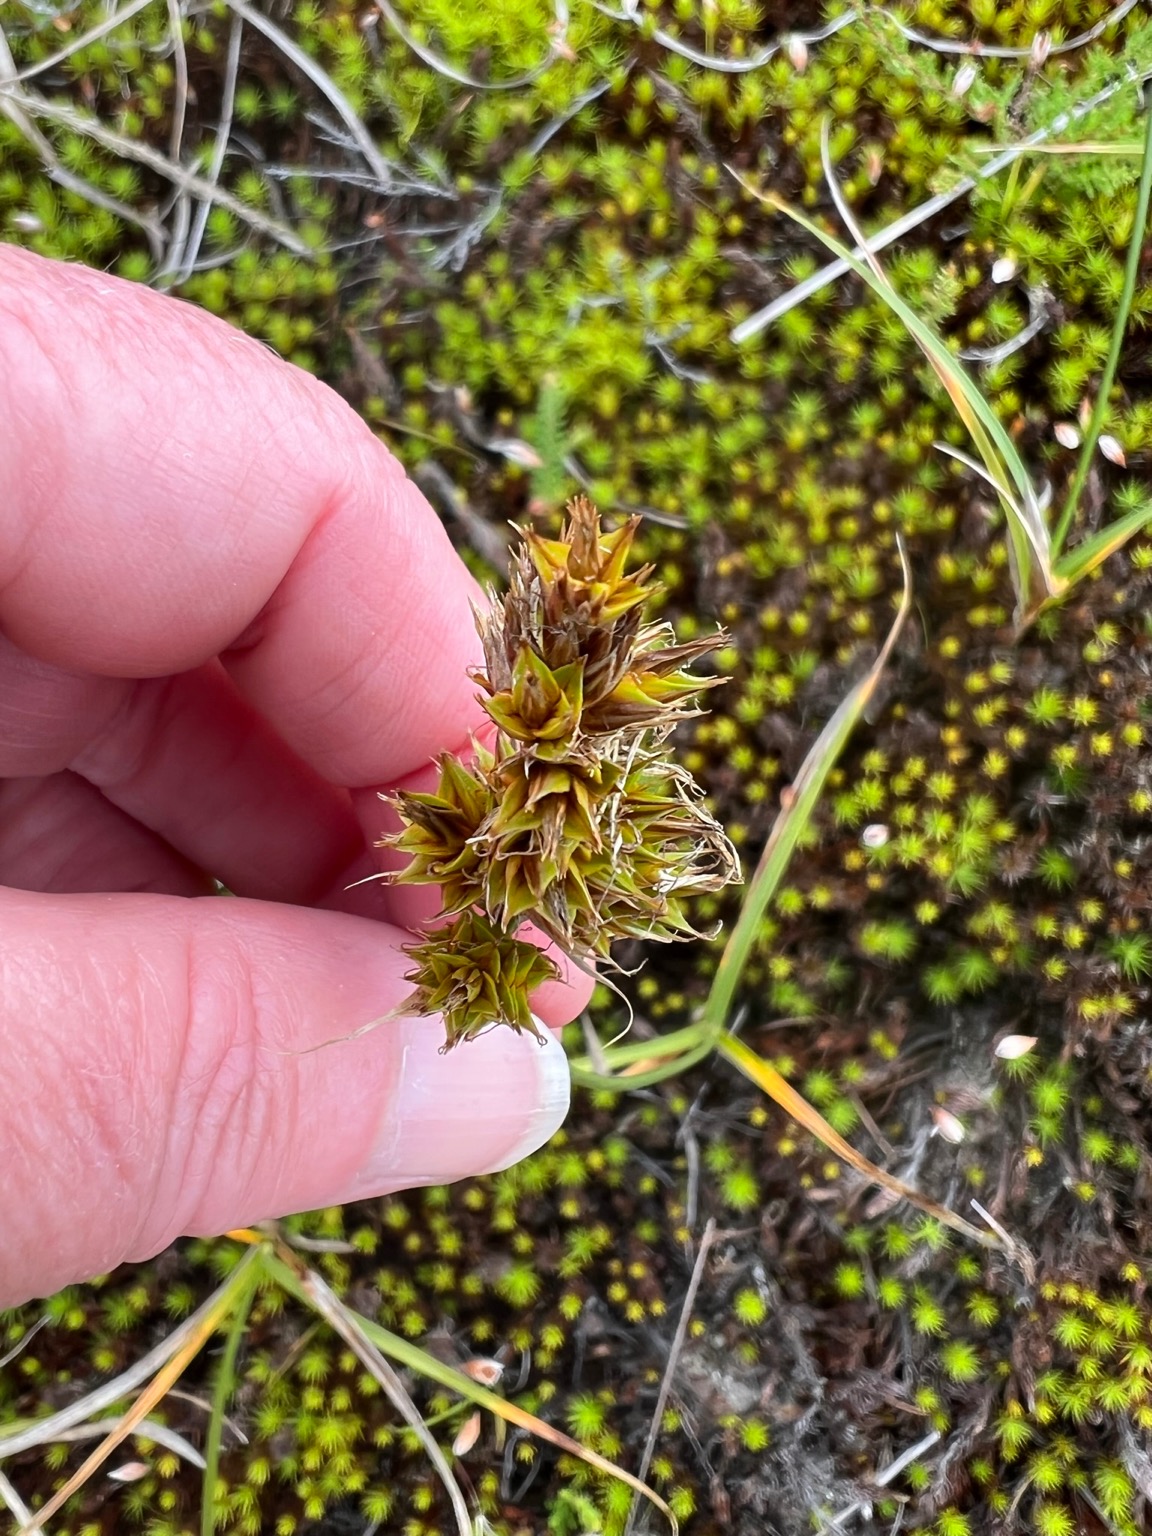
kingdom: Plantae
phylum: Tracheophyta
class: Liliopsida
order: Poales
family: Cyperaceae
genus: Carex
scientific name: Carex arenaria
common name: Sand-star
